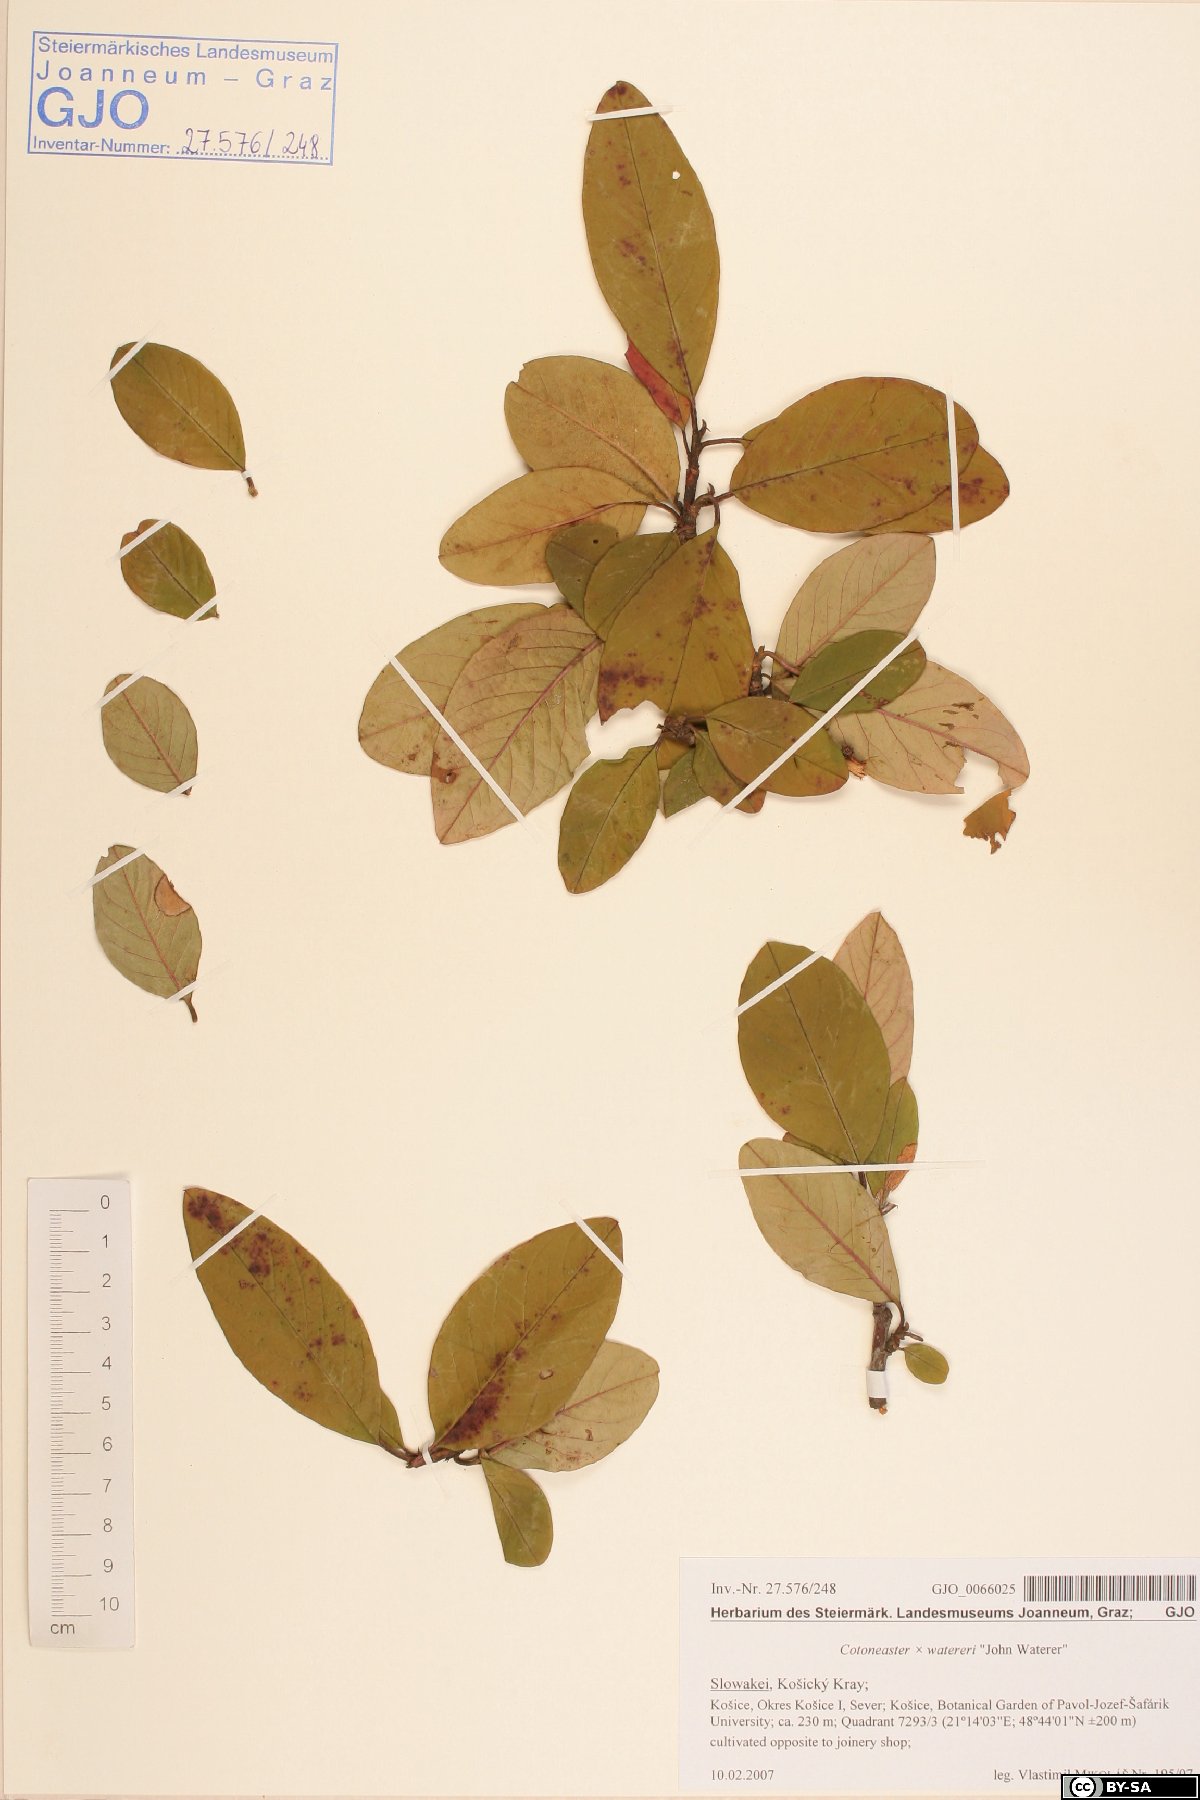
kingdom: Plantae
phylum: Tracheophyta
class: Magnoliopsida
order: Rosales
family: Rosaceae
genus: Cotoneaster
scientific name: Cotoneaster watereri
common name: Waterer's cotoneaster
